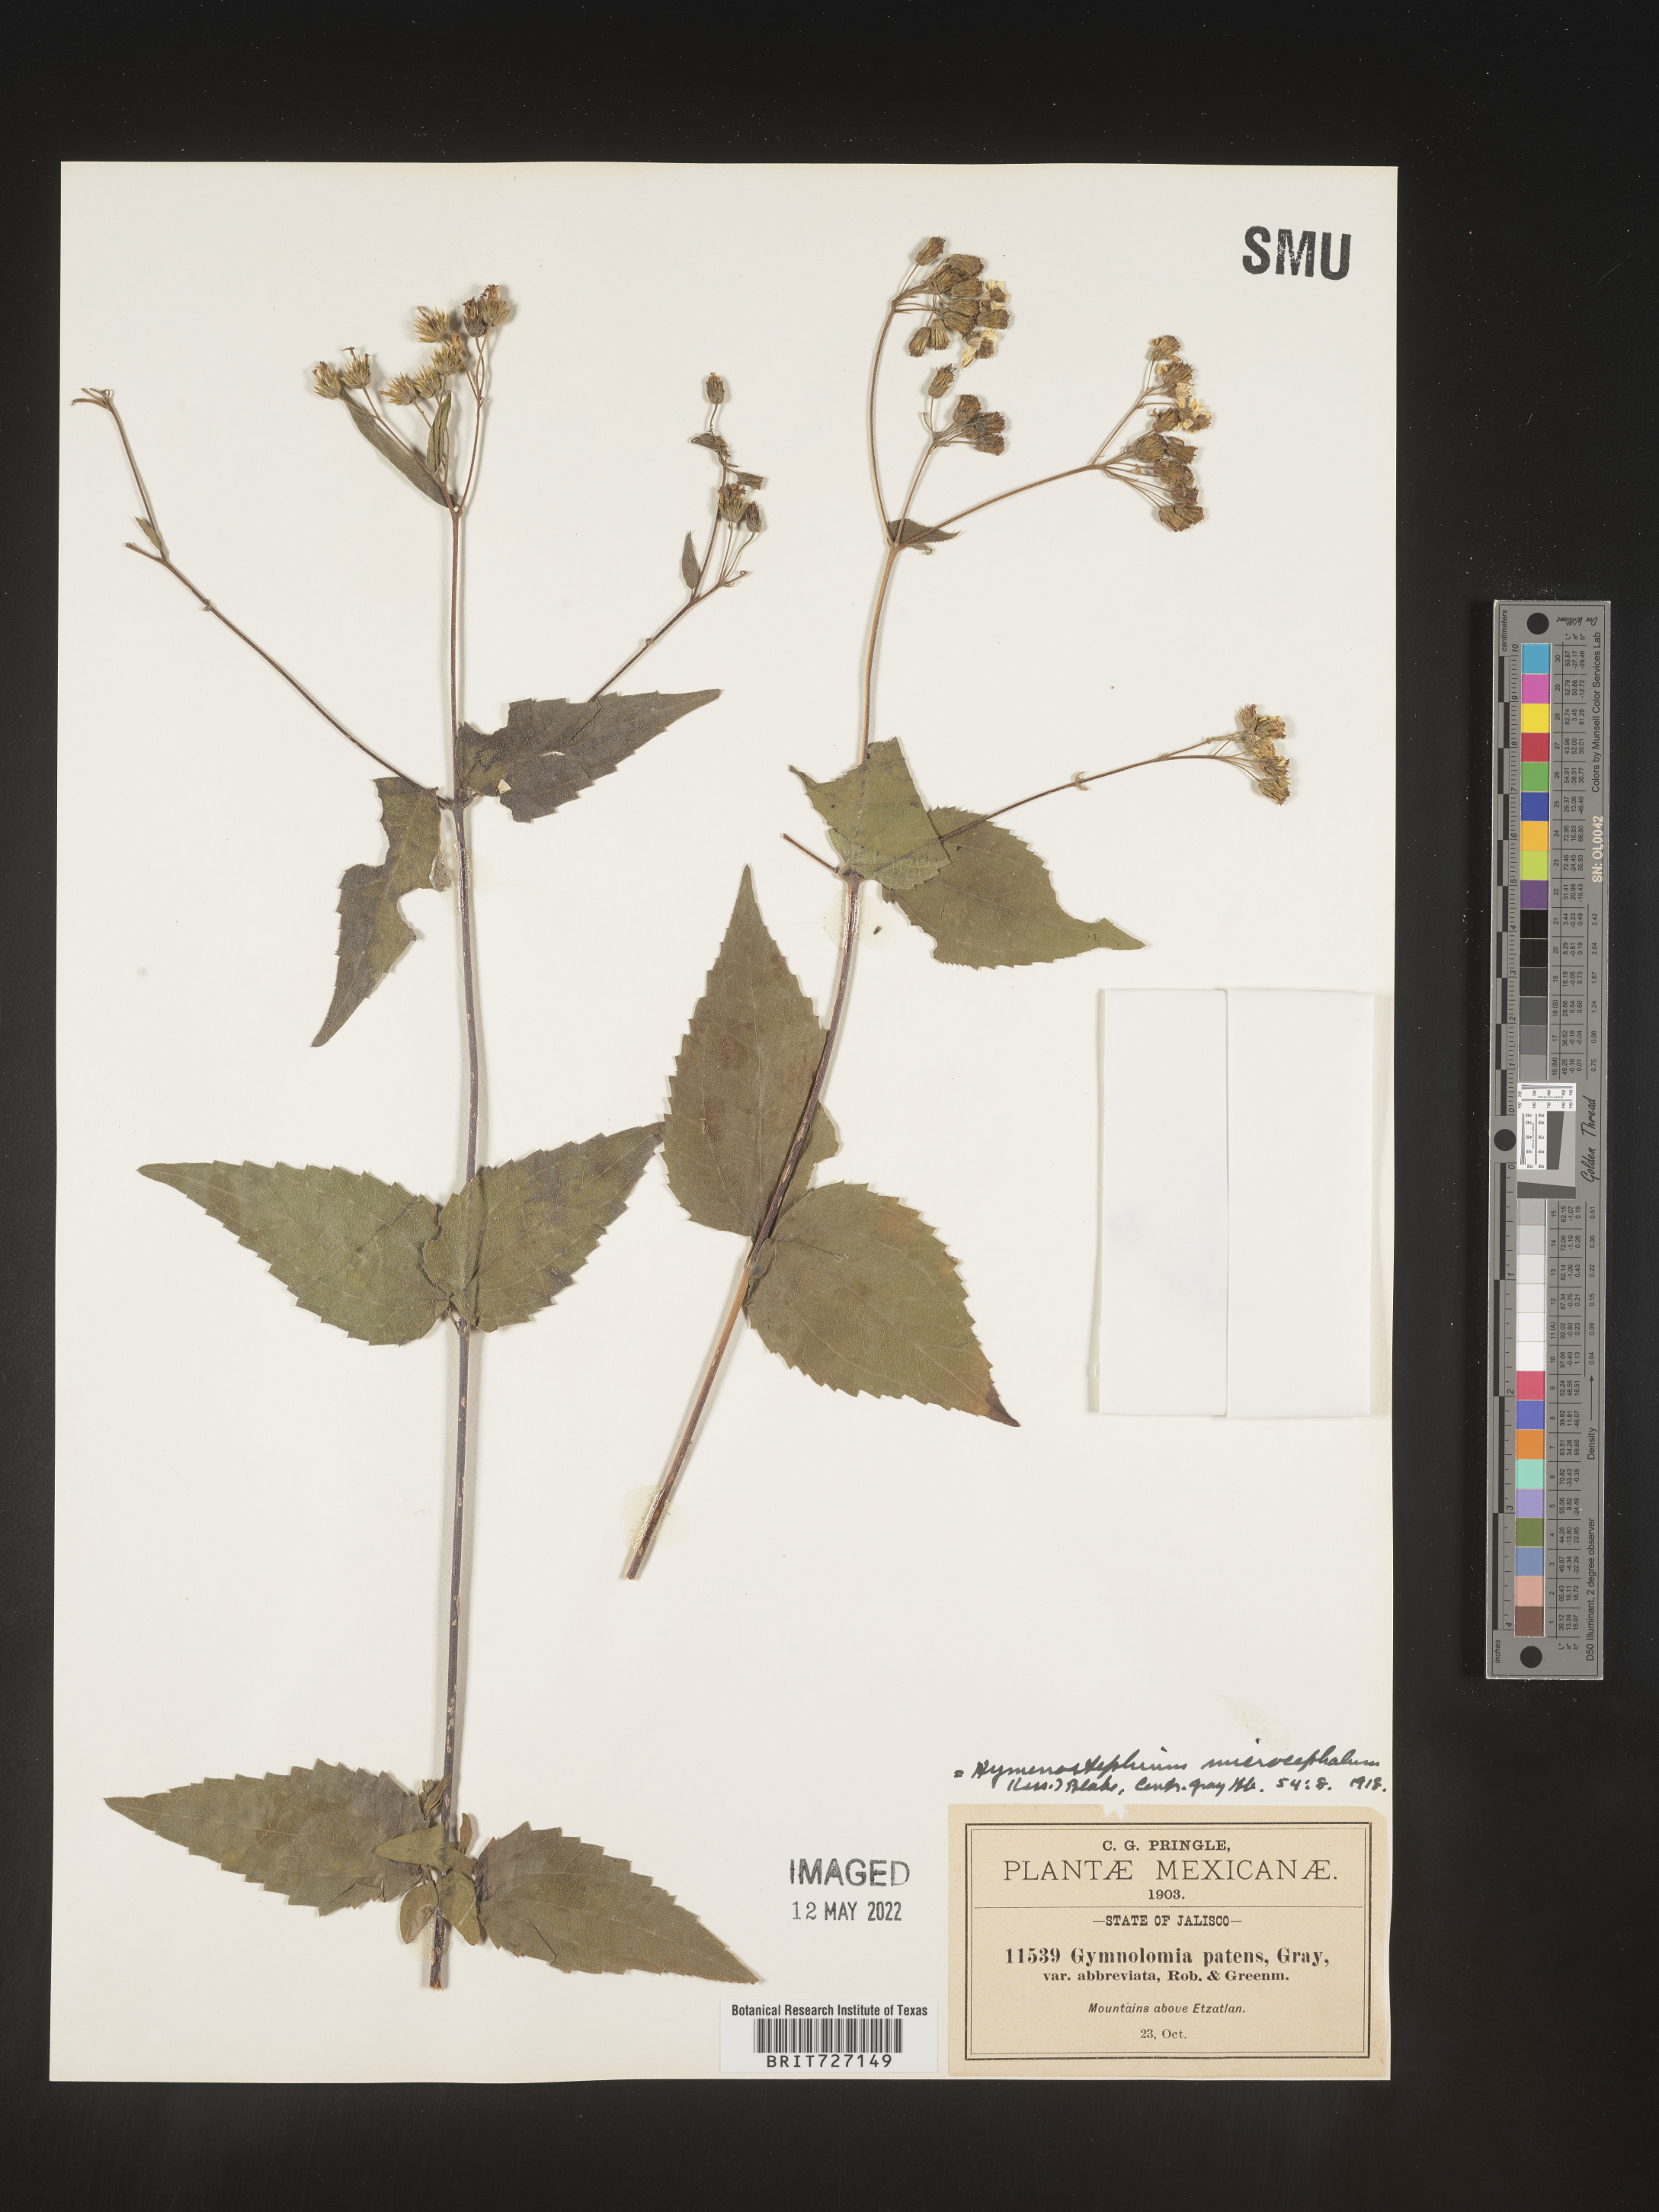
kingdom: Plantae
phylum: Tracheophyta
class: Magnoliopsida
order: Asterales
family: Asteraceae
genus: Hymenostephium
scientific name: Hymenostephium
